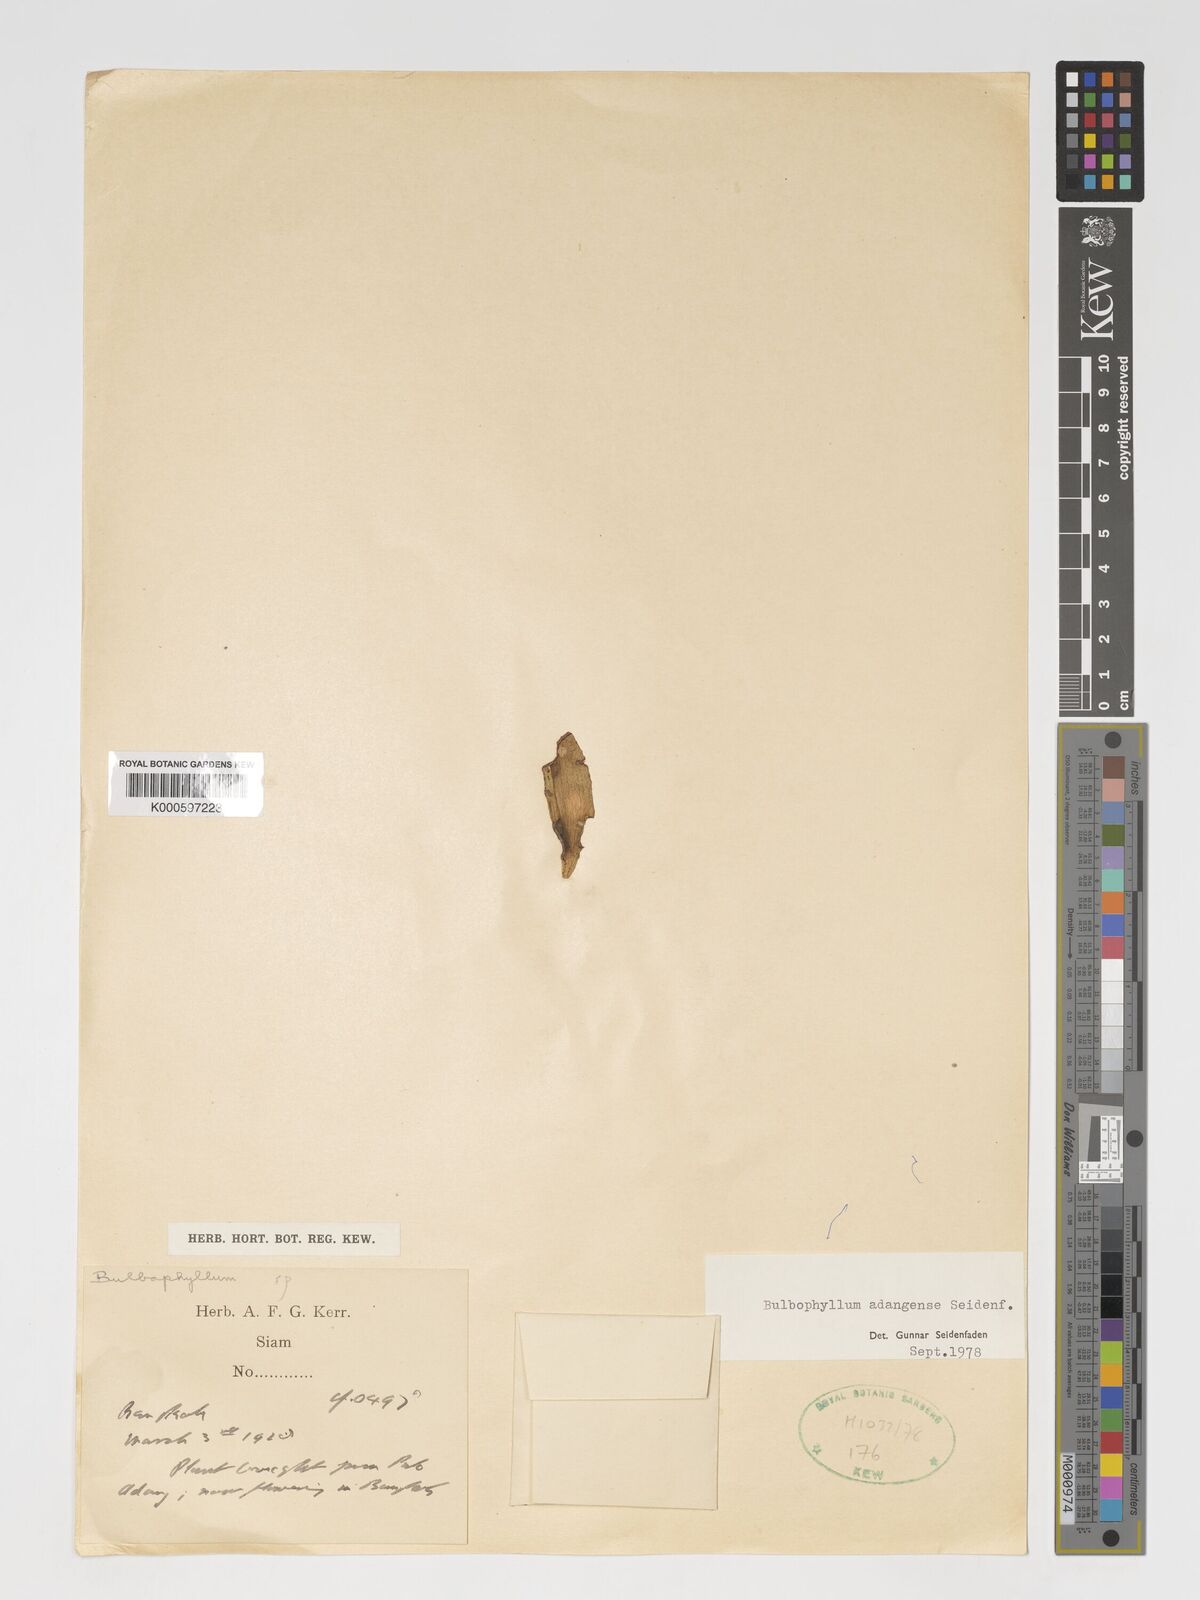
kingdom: Plantae
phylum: Tracheophyta
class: Liliopsida
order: Asparagales
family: Orchidaceae
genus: Bulbophyllum
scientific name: Bulbophyllum adangense
